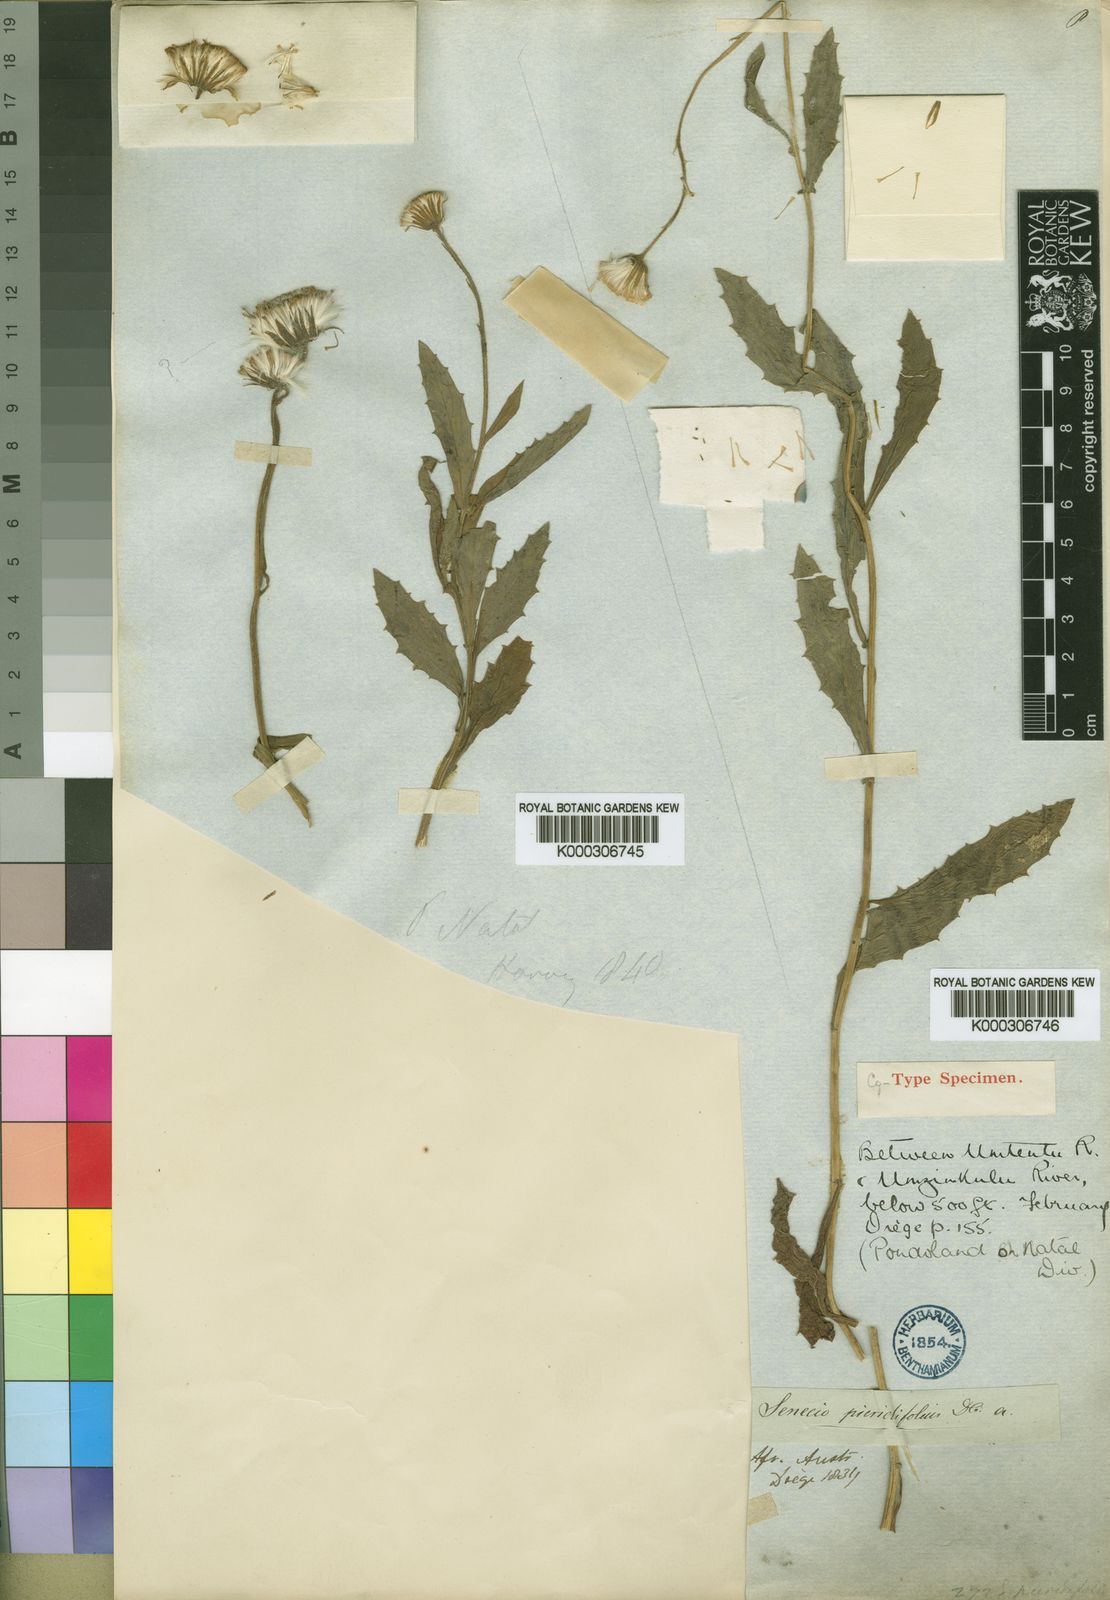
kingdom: Plantae
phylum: Tracheophyta
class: Magnoliopsida
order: Asterales
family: Asteraceae
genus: Crassocephalum
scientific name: Crassocephalum picridifolium
